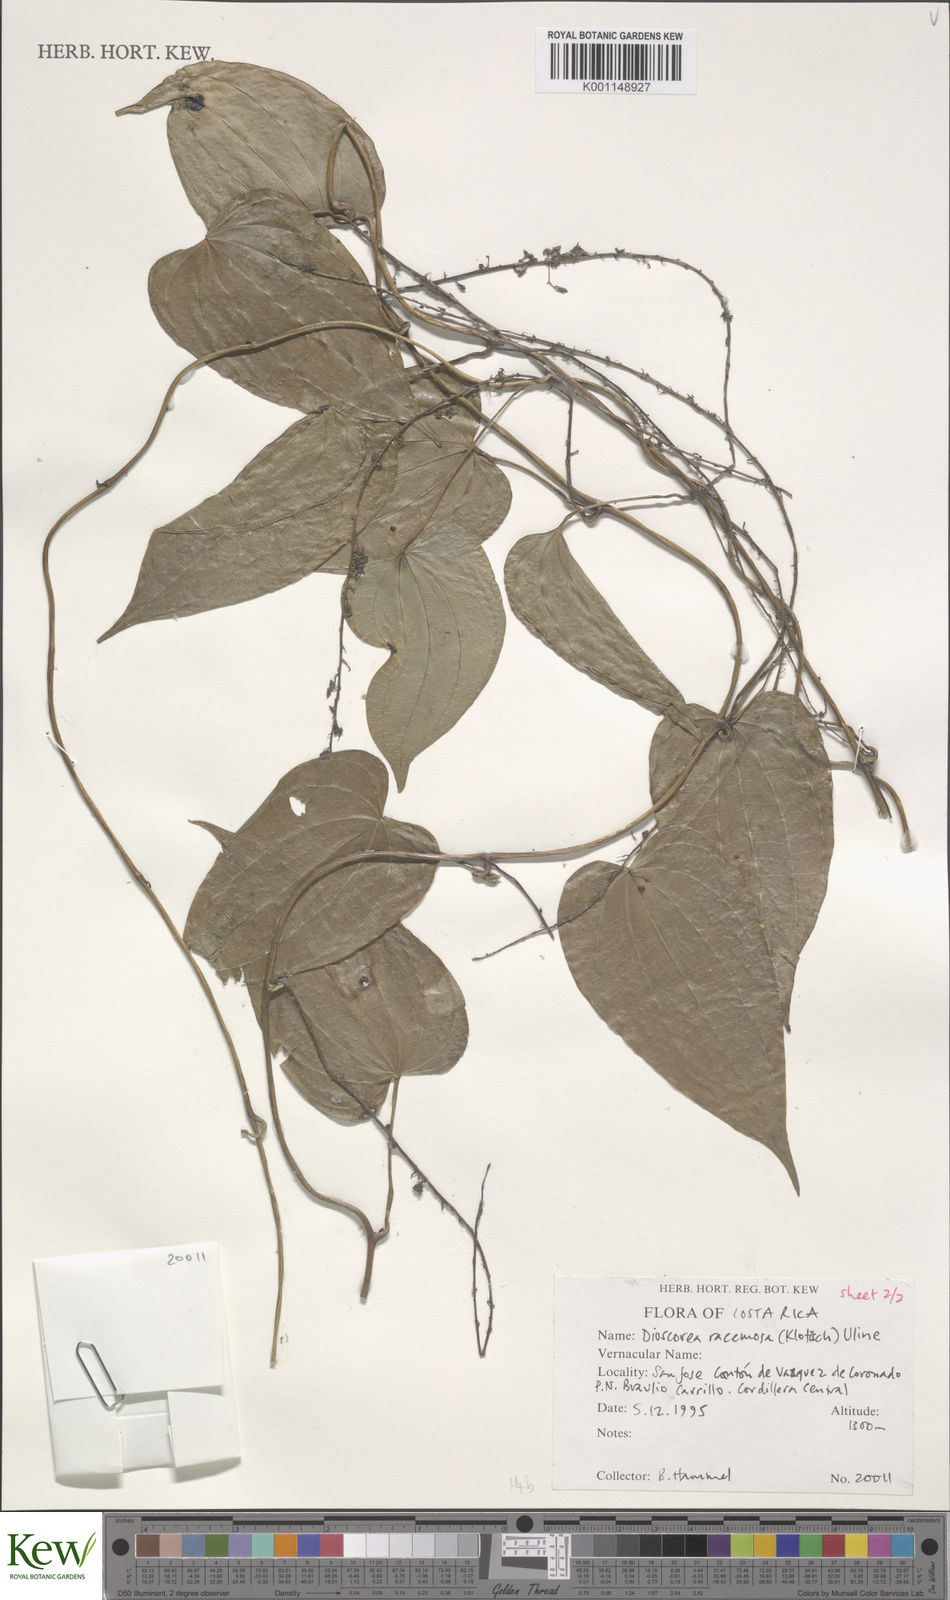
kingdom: Plantae
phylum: Tracheophyta
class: Liliopsida
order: Dioscoreales
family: Dioscoreaceae
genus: Dioscorea
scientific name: Dioscorea
